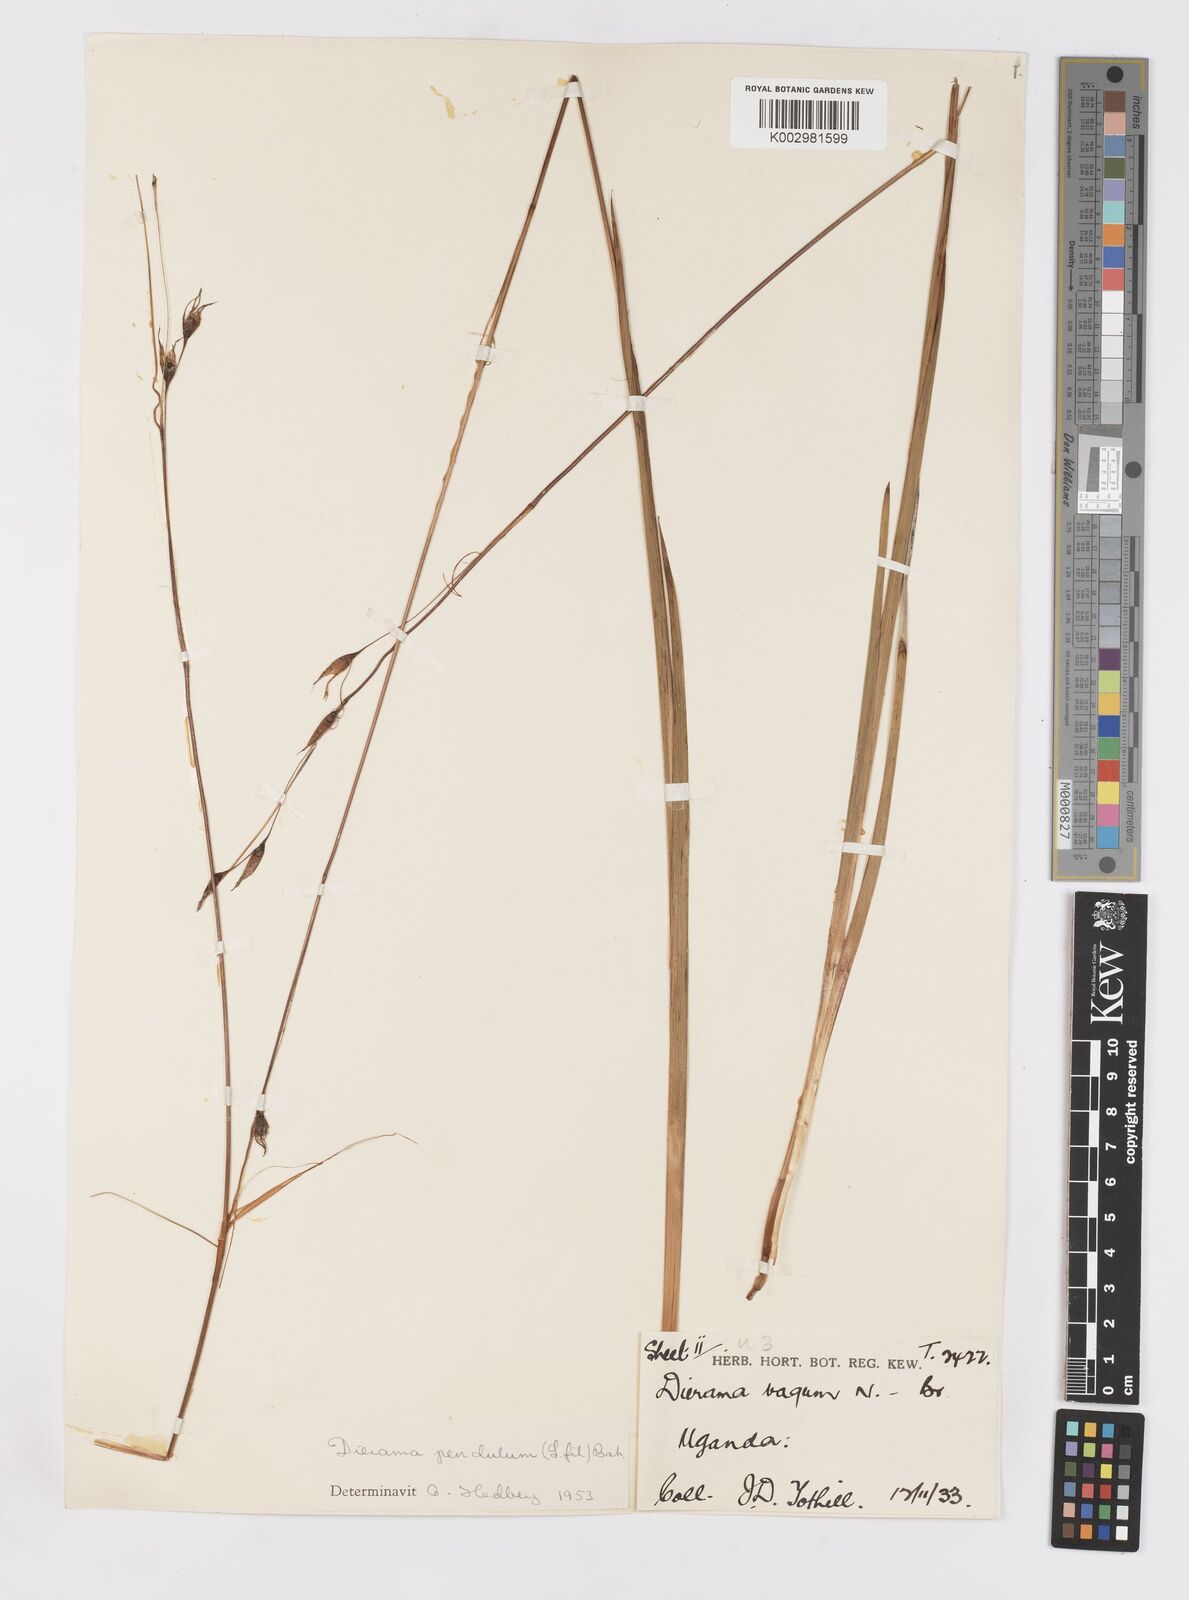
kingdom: Plantae
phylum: Tracheophyta
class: Liliopsida
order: Asparagales
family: Iridaceae
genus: Dierama
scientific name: Dierama cupuliflorum
